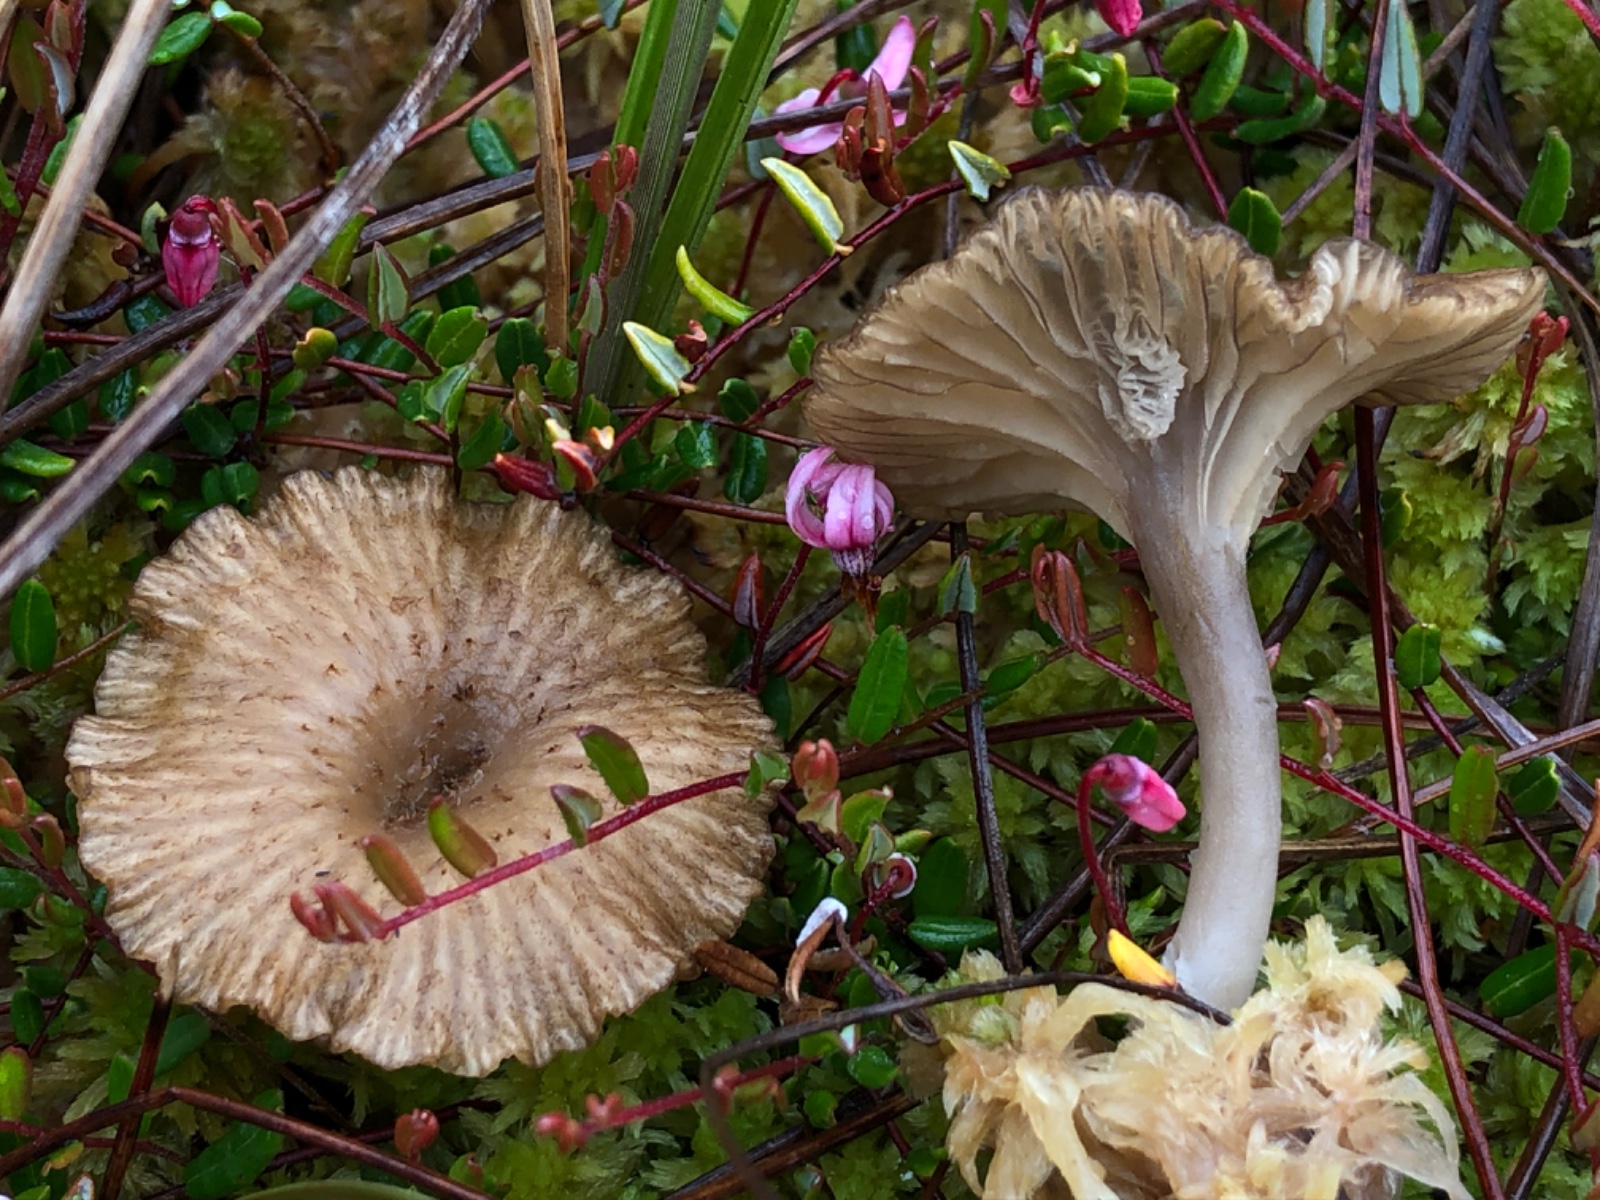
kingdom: Fungi
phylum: Basidiomycota
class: Agaricomycetes
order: Agaricales
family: Hygrophoraceae
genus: Arrhenia
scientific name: Arrhenia gerardiana
